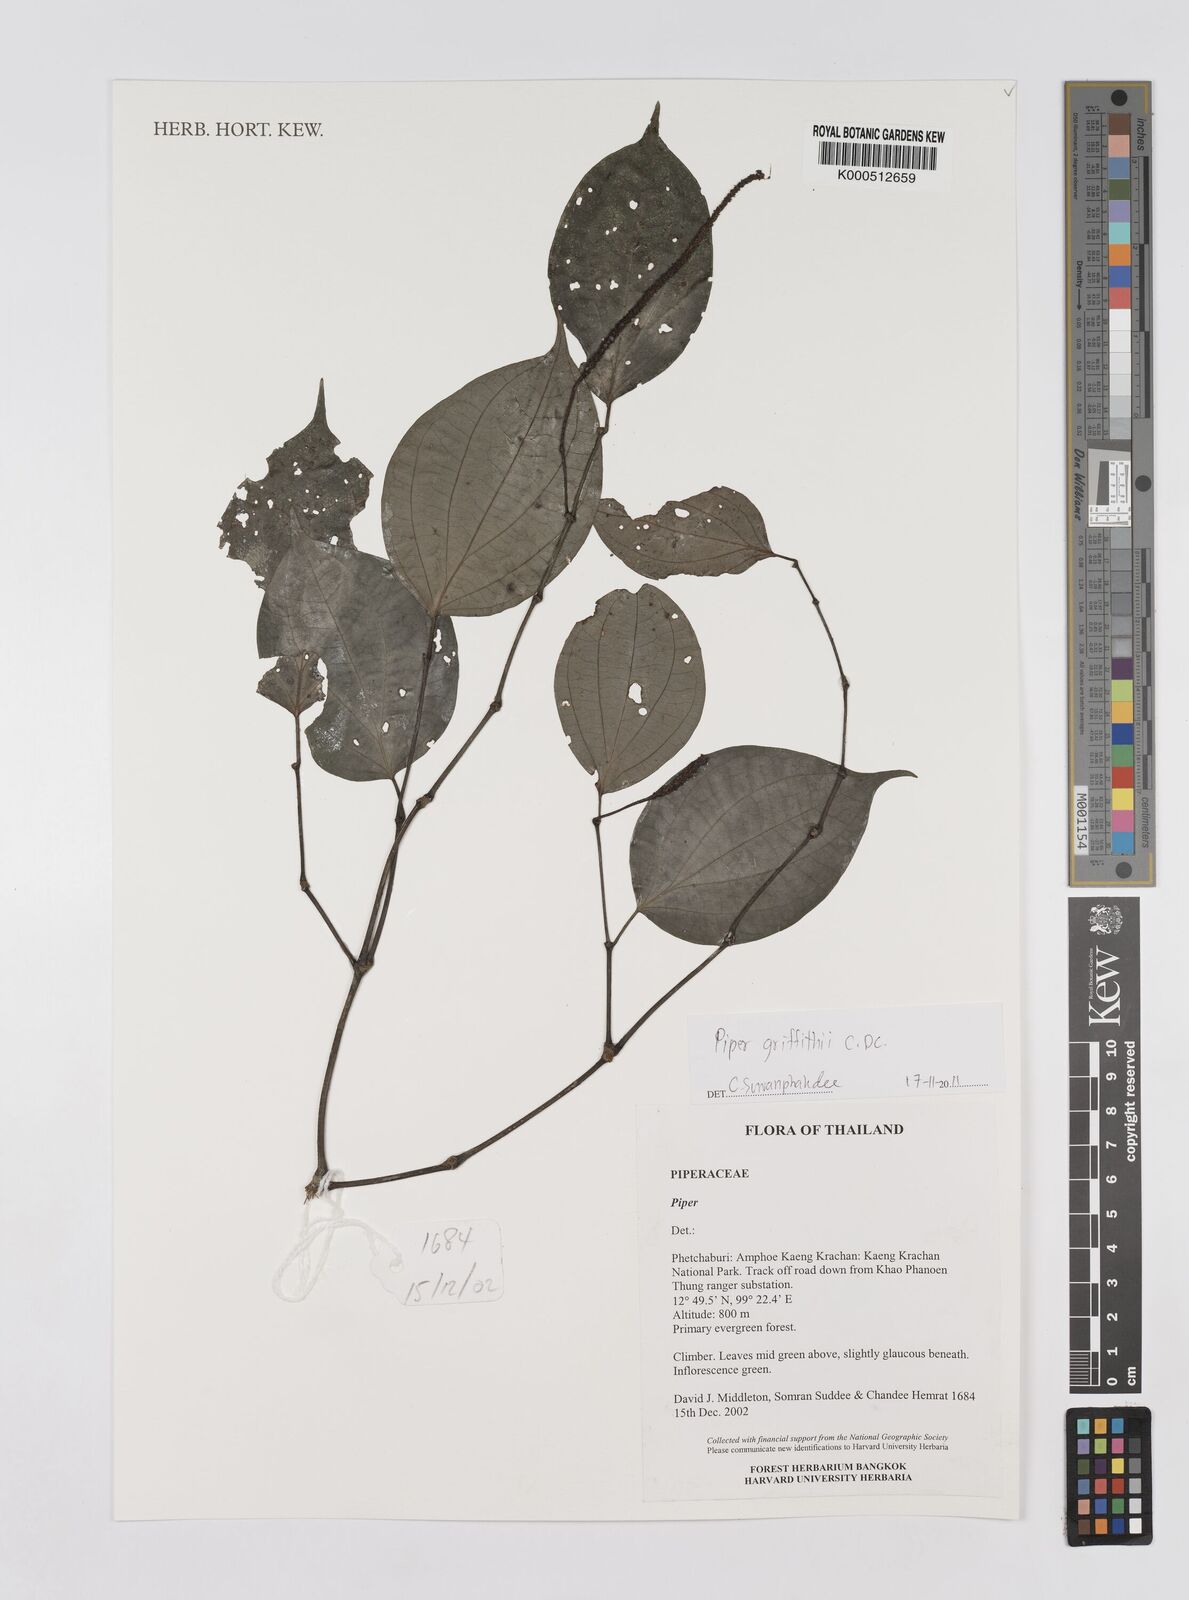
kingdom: Plantae
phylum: Tracheophyta
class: Magnoliopsida
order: Piperales
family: Piperaceae
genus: Piper
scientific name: Piper
